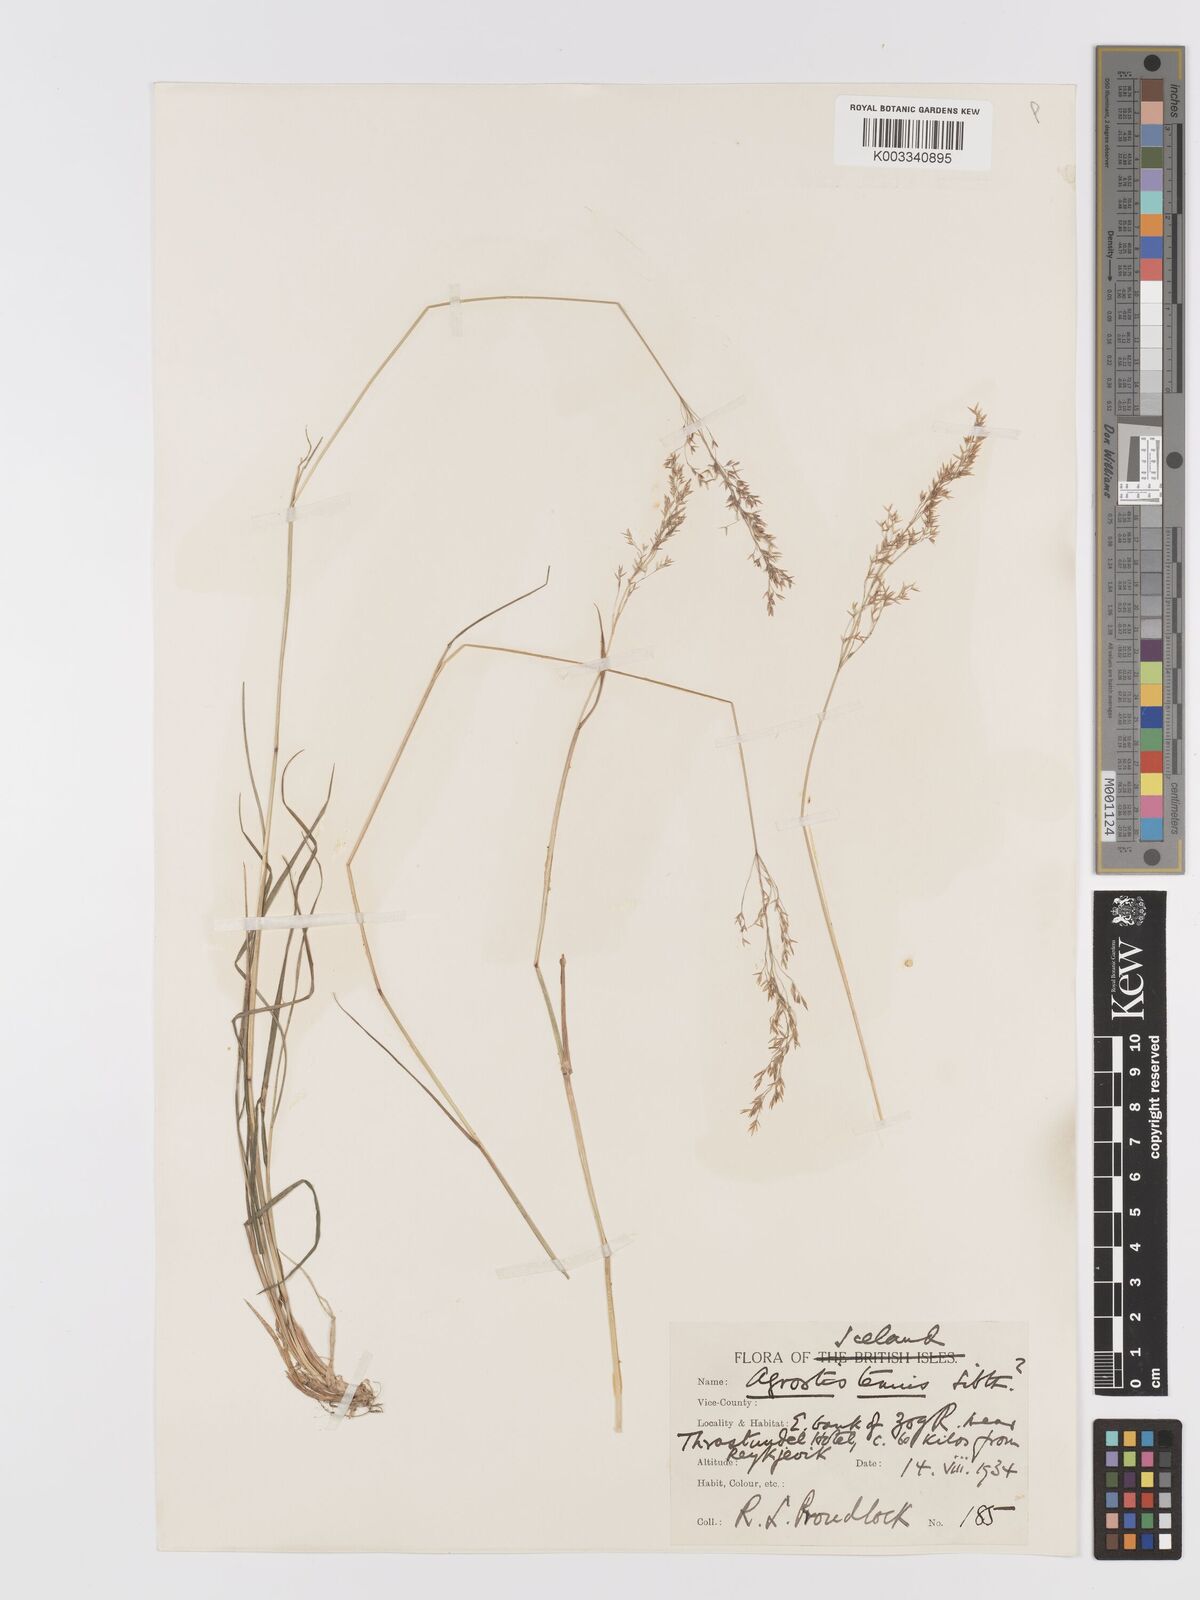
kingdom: Plantae
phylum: Tracheophyta
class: Liliopsida
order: Poales
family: Poaceae
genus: Agrostis
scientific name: Agrostis capillaris
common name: Colonial bentgrass
